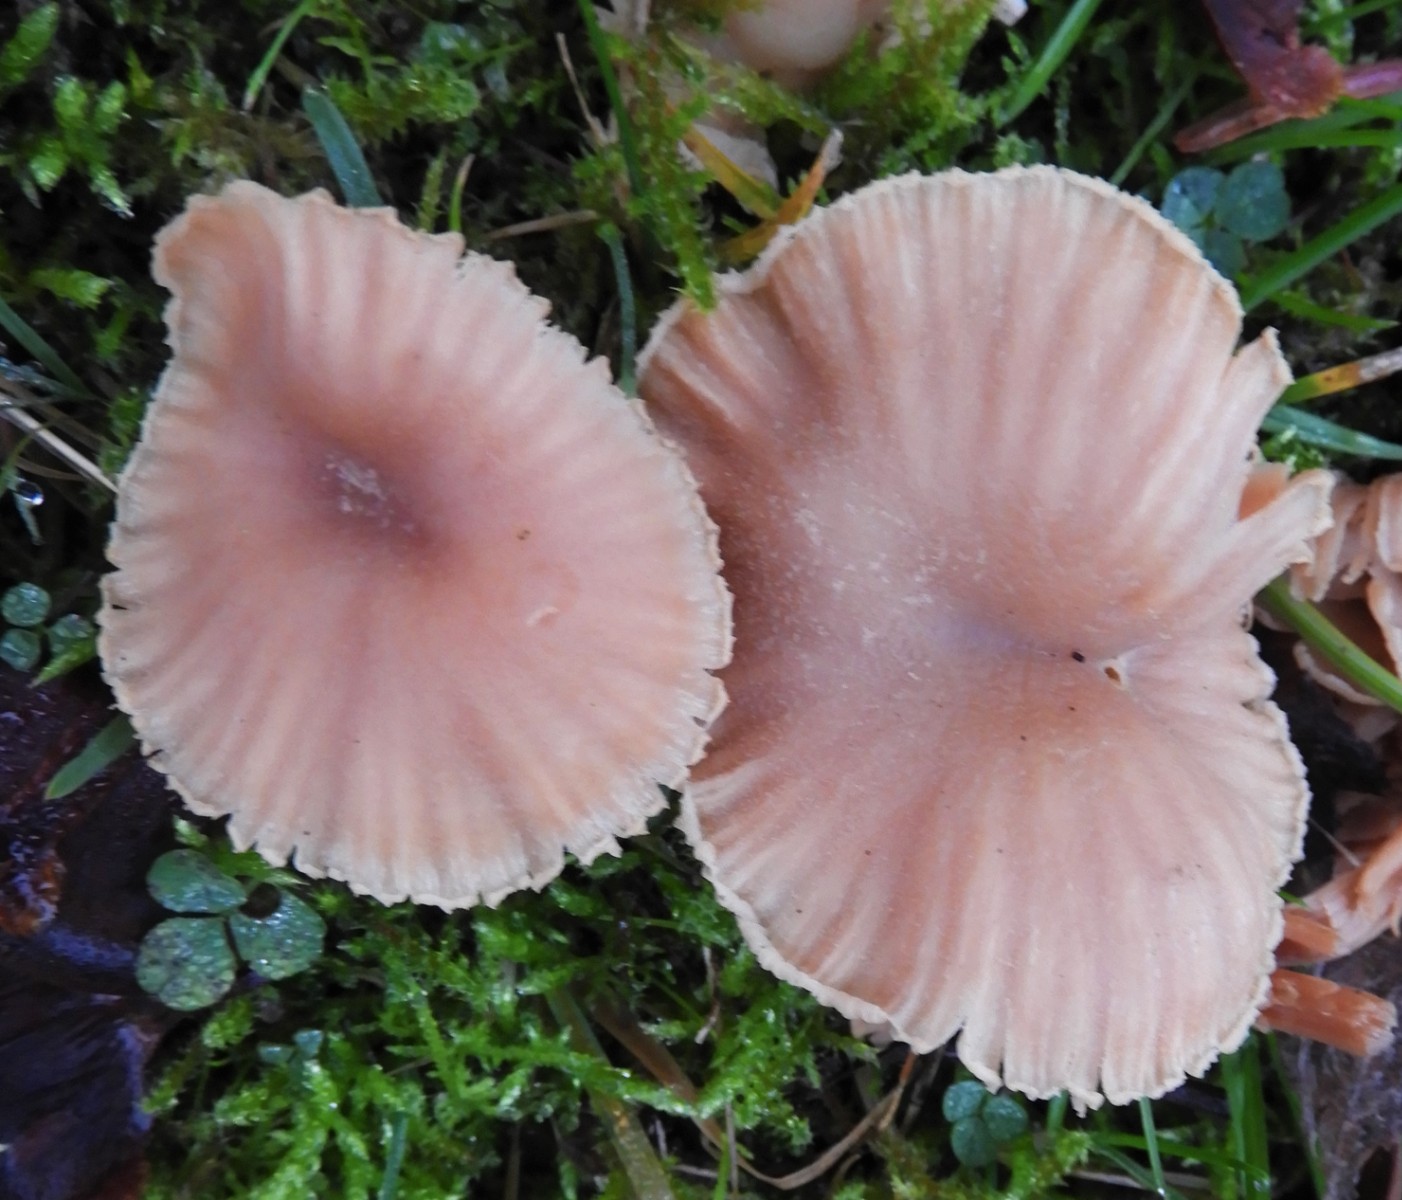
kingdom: Fungi
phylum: Basidiomycota
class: Agaricomycetes
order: Agaricales
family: Hydnangiaceae
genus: Laccaria
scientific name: Laccaria proxima
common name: stor ametysthat
